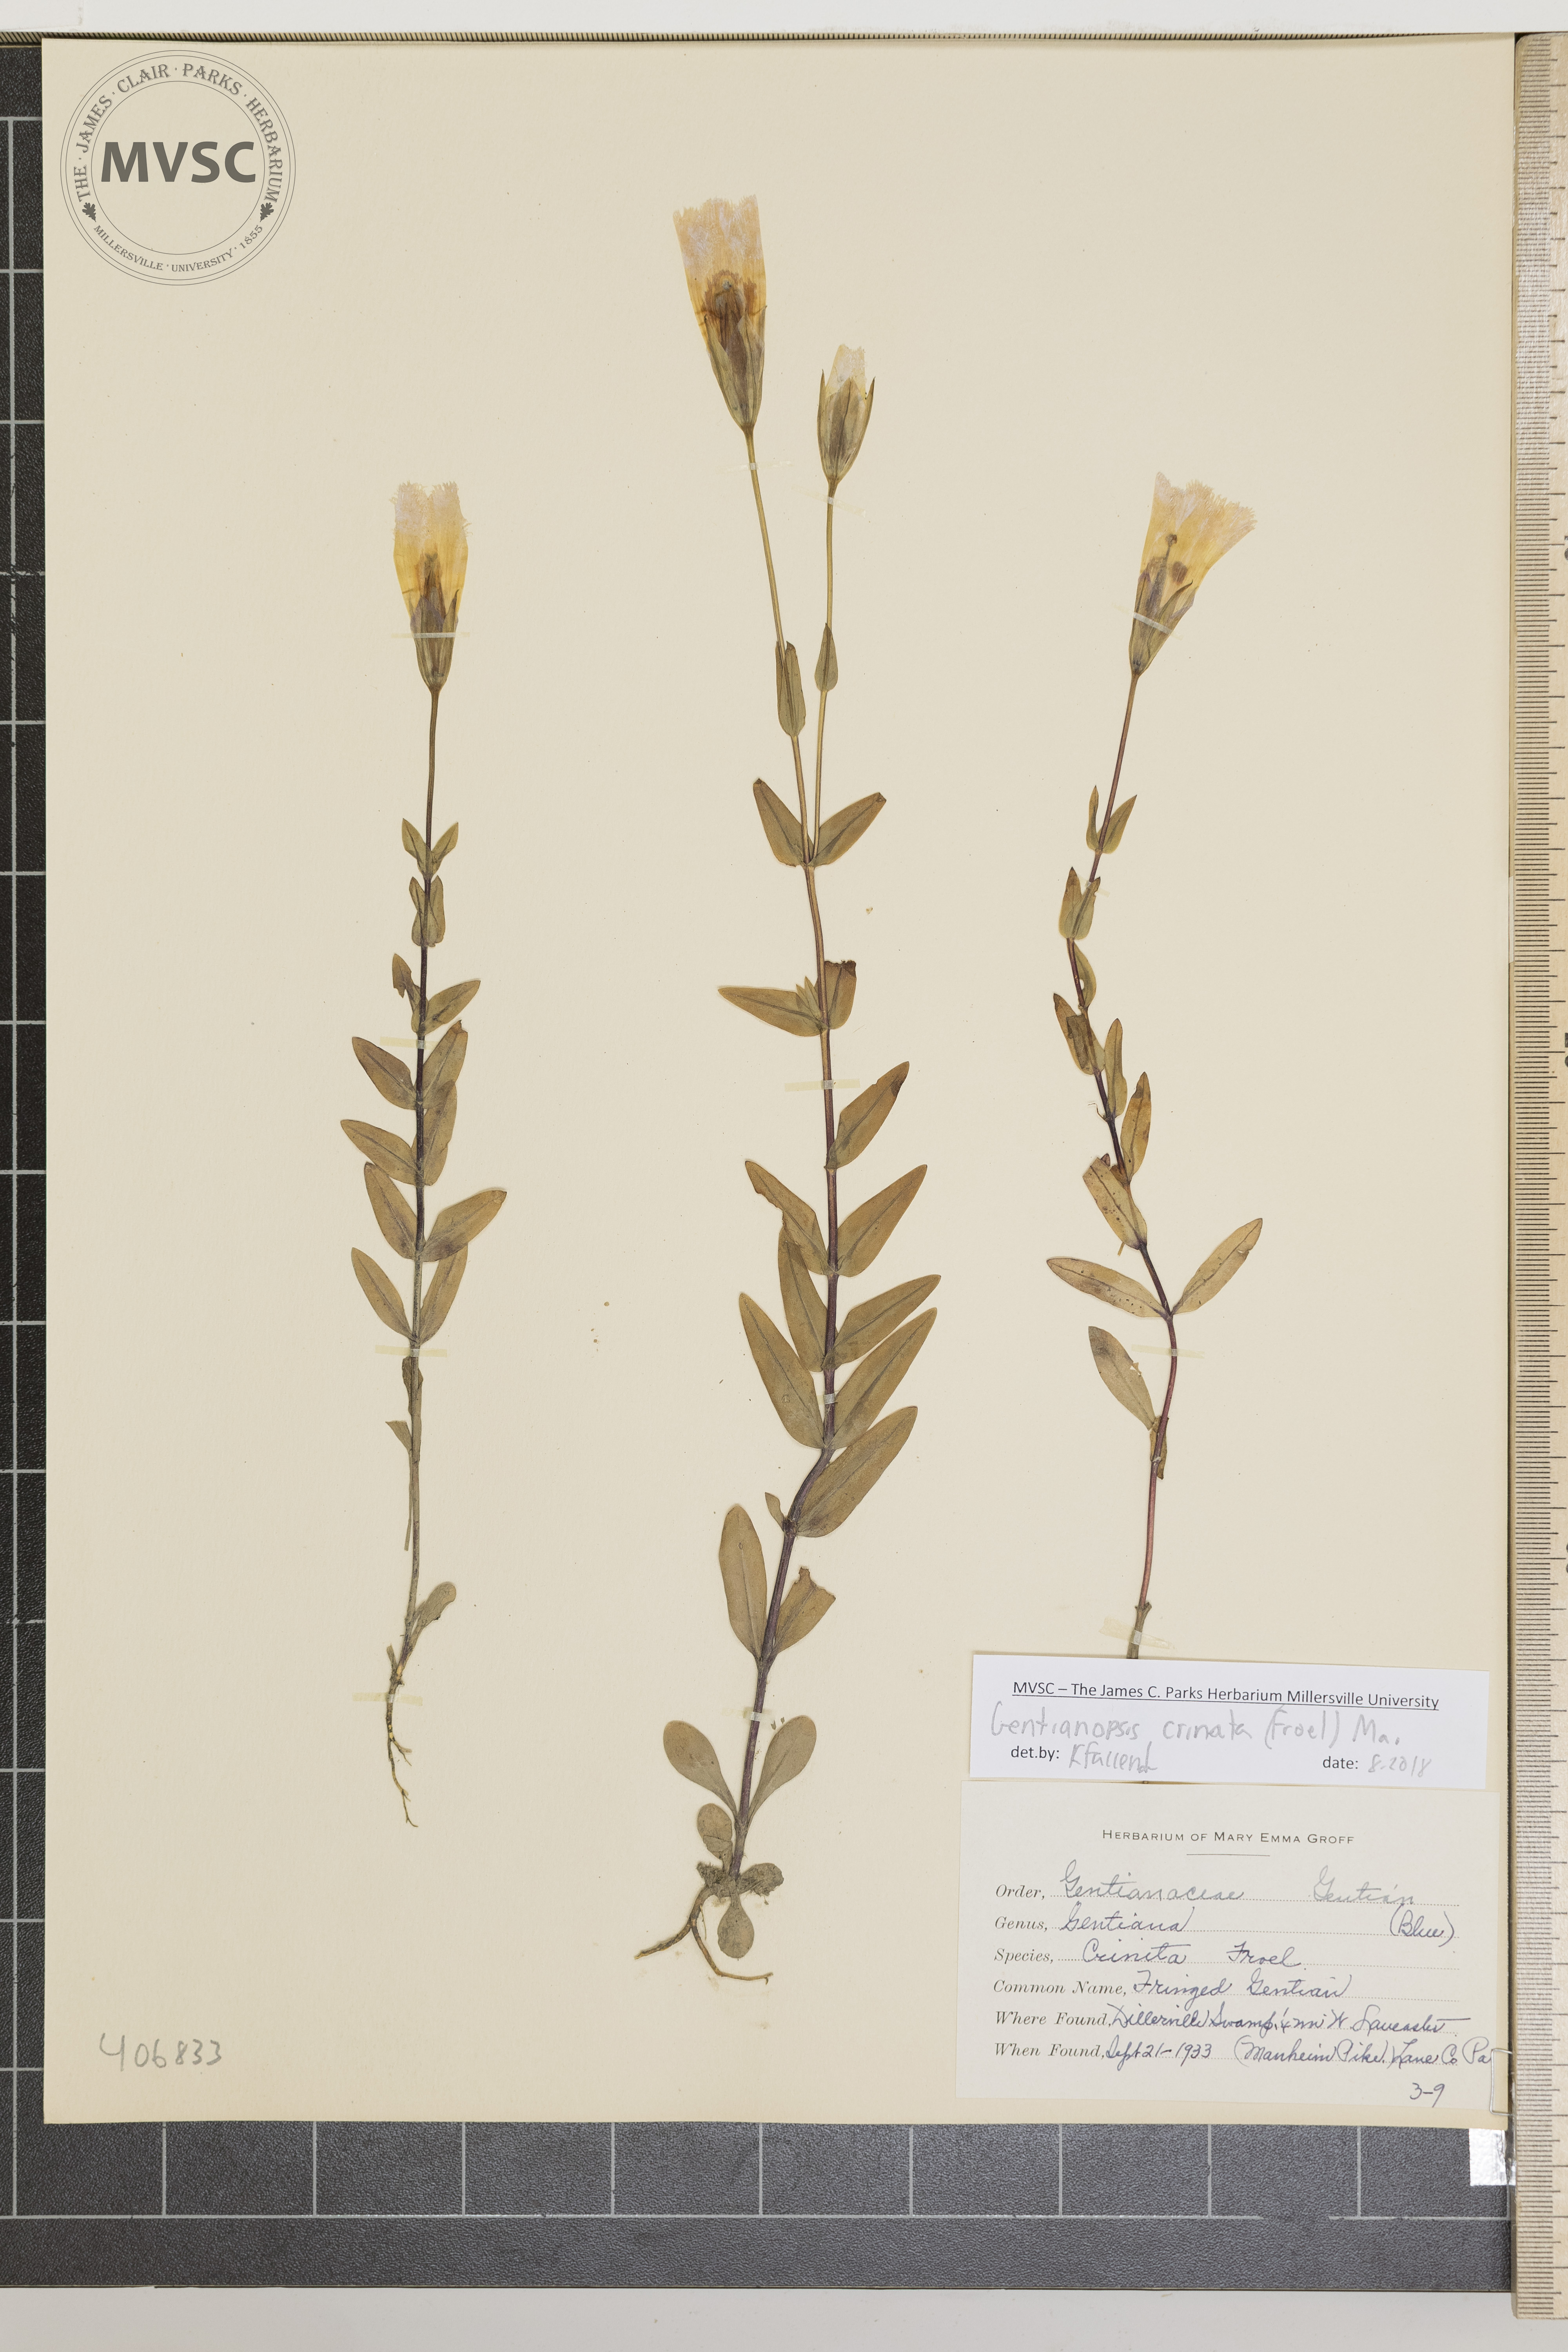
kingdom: Plantae
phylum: Tracheophyta
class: Magnoliopsida
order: Gentianales
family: Gentianaceae
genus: Gentianopsis
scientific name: Gentianopsis crinita
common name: Fringed Gentian
